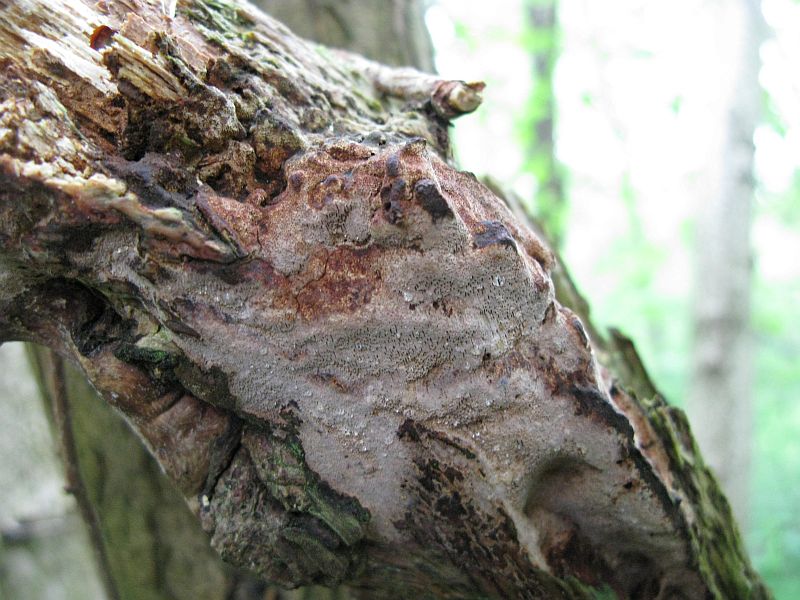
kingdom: Fungi
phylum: Basidiomycota
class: Agaricomycetes
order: Hymenochaetales
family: Hymenochaetaceae
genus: Fuscoporia
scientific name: Fuscoporia ferrea
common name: skorpe-ildporesvamp
